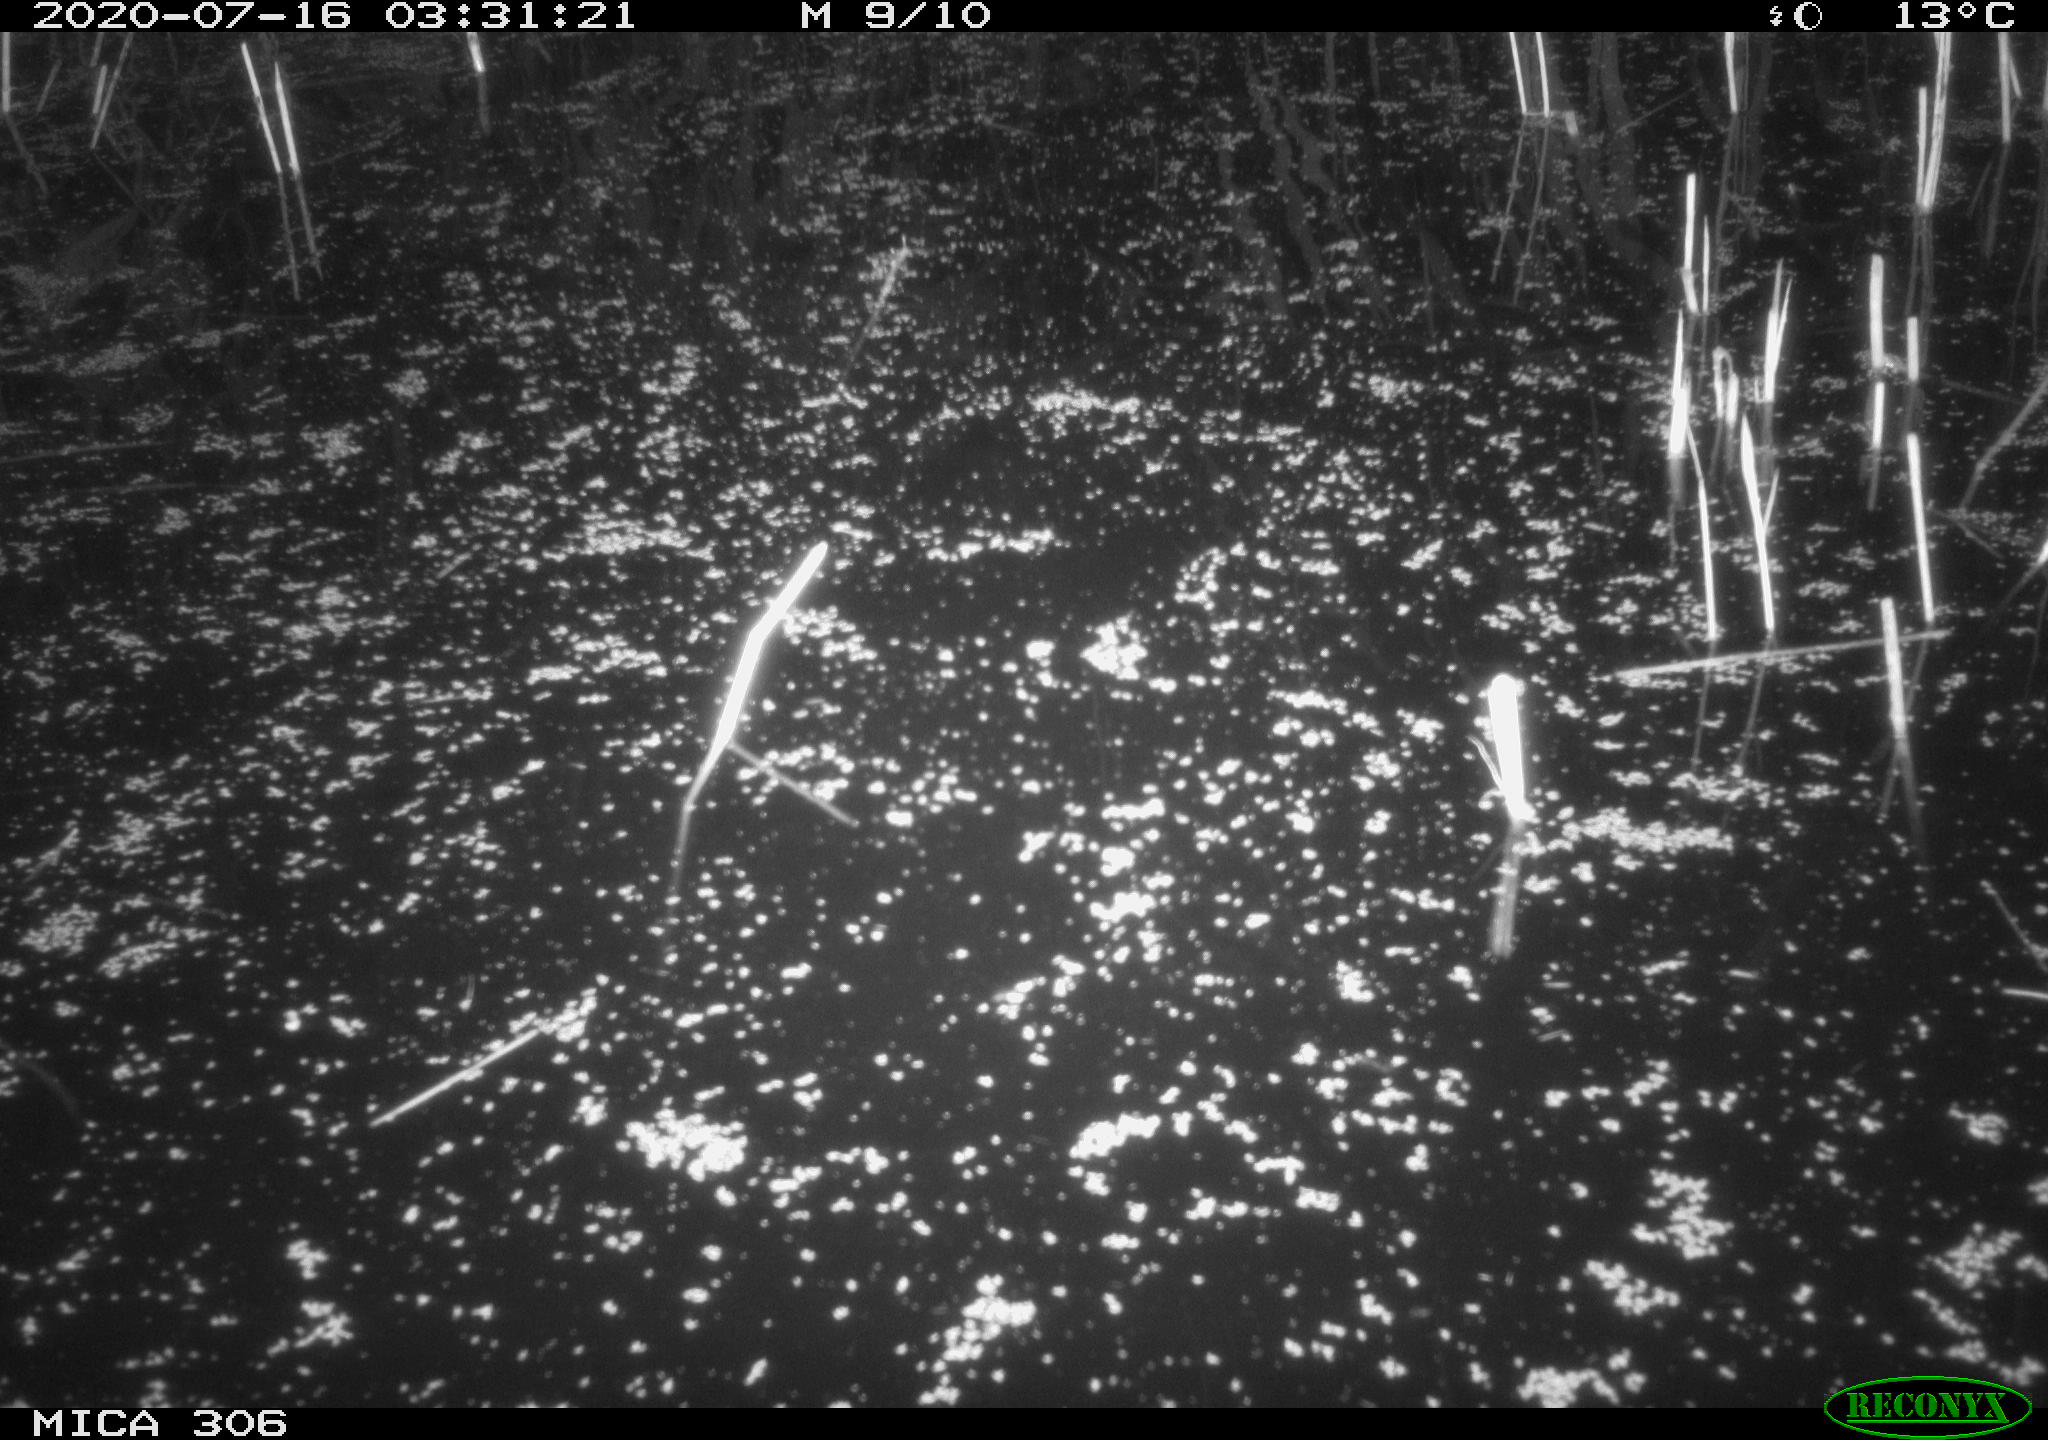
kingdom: Animalia
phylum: Chordata
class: Mammalia
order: Rodentia
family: Cricetidae
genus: Ondatra
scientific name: Ondatra zibethicus
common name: Muskrat
